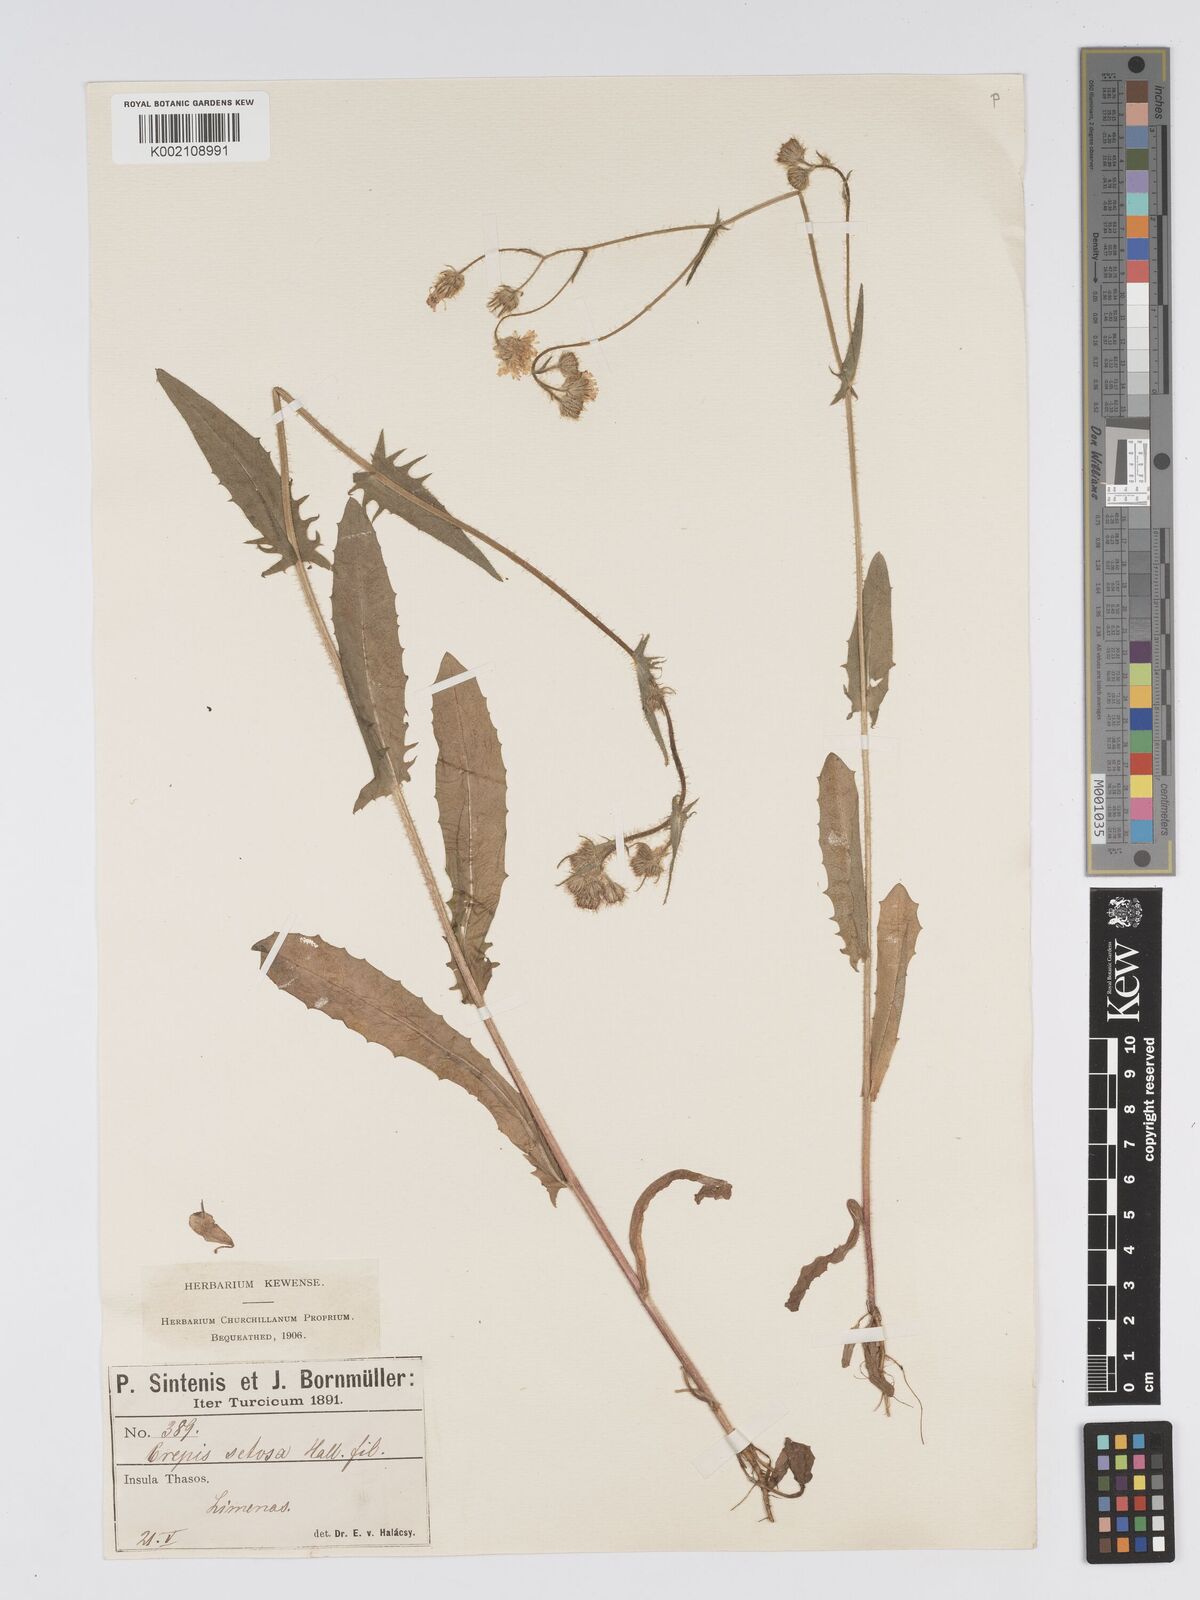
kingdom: Plantae
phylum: Tracheophyta
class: Magnoliopsida
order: Asterales
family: Asteraceae
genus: Crepis
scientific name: Crepis setosa
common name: Bristly hawk's-beard
